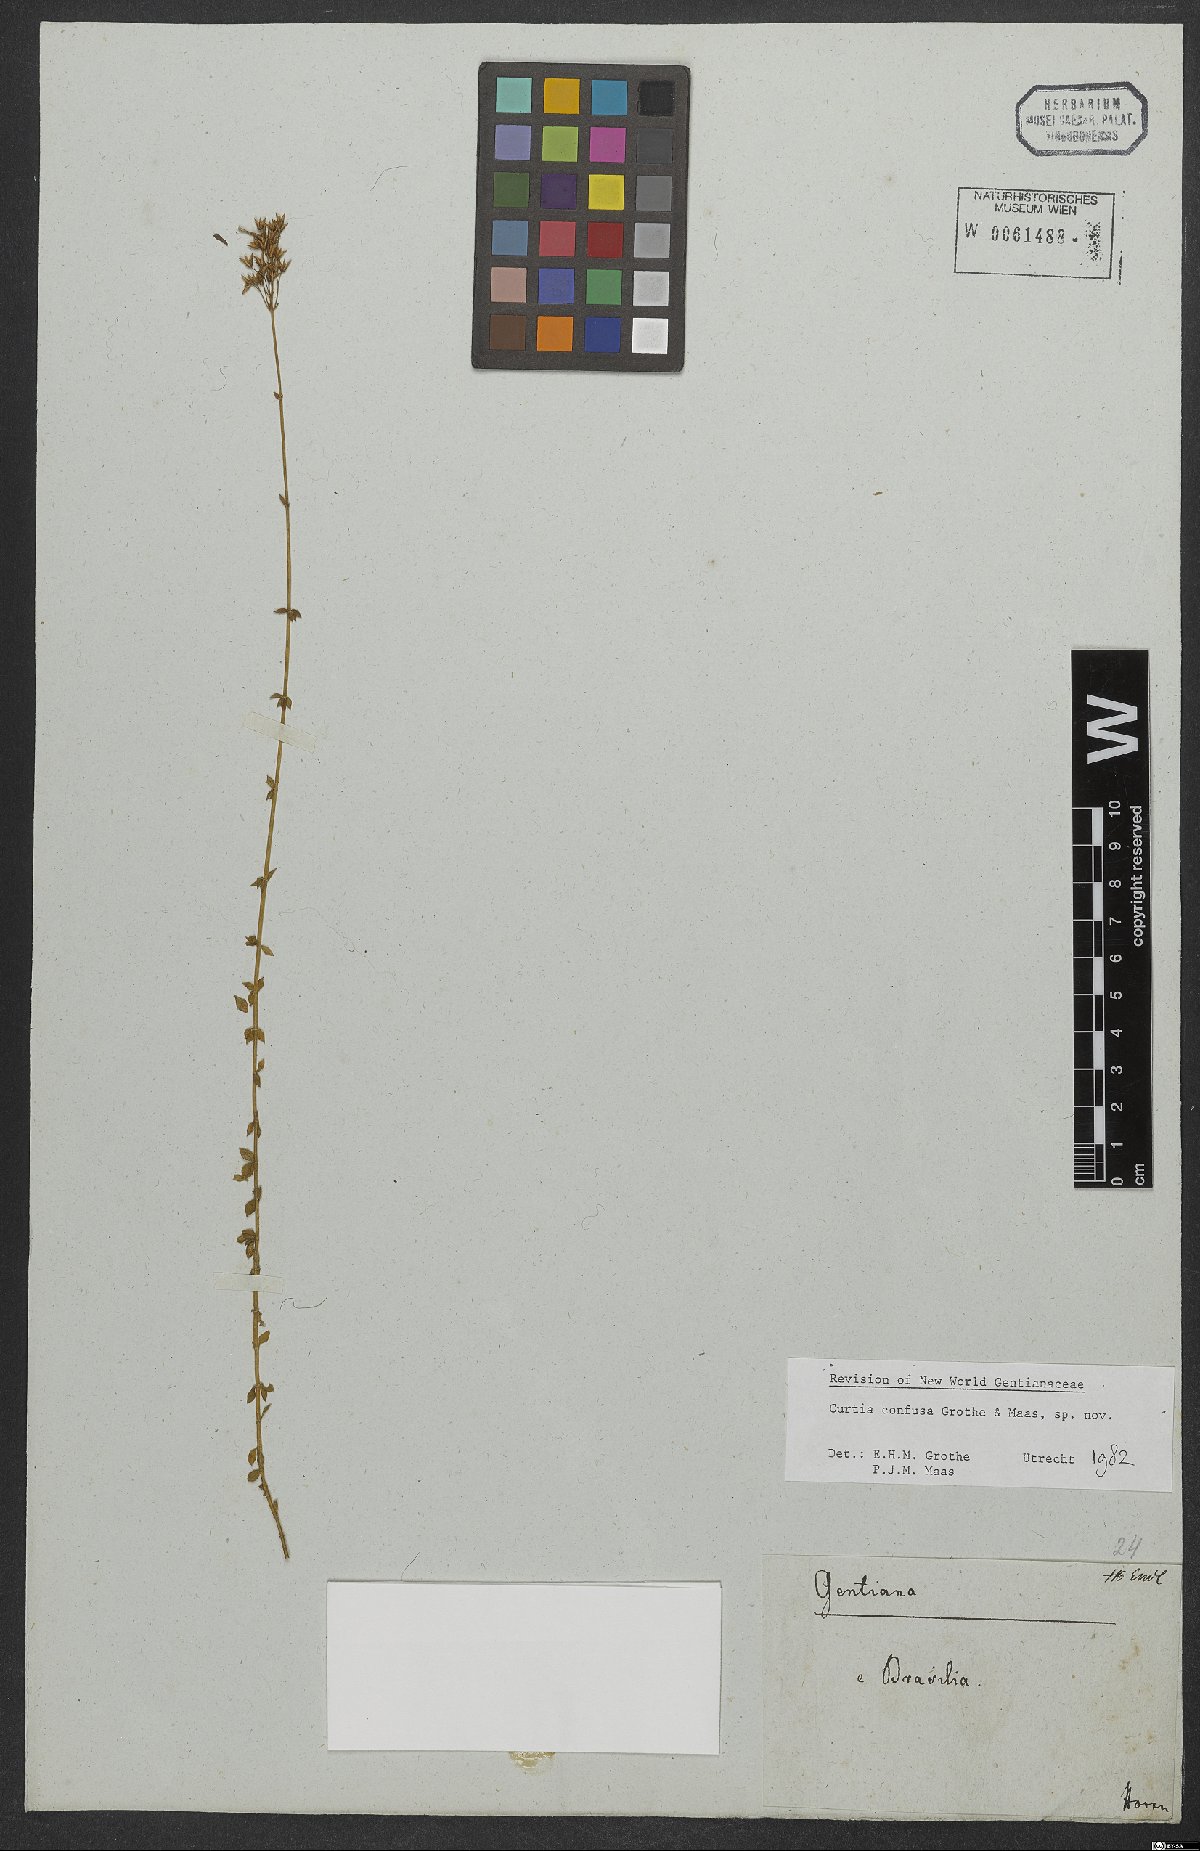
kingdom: Plantae
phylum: Tracheophyta
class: Magnoliopsida
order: Gentianales
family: Gentianaceae
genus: Curtia
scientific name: Curtia conferta
